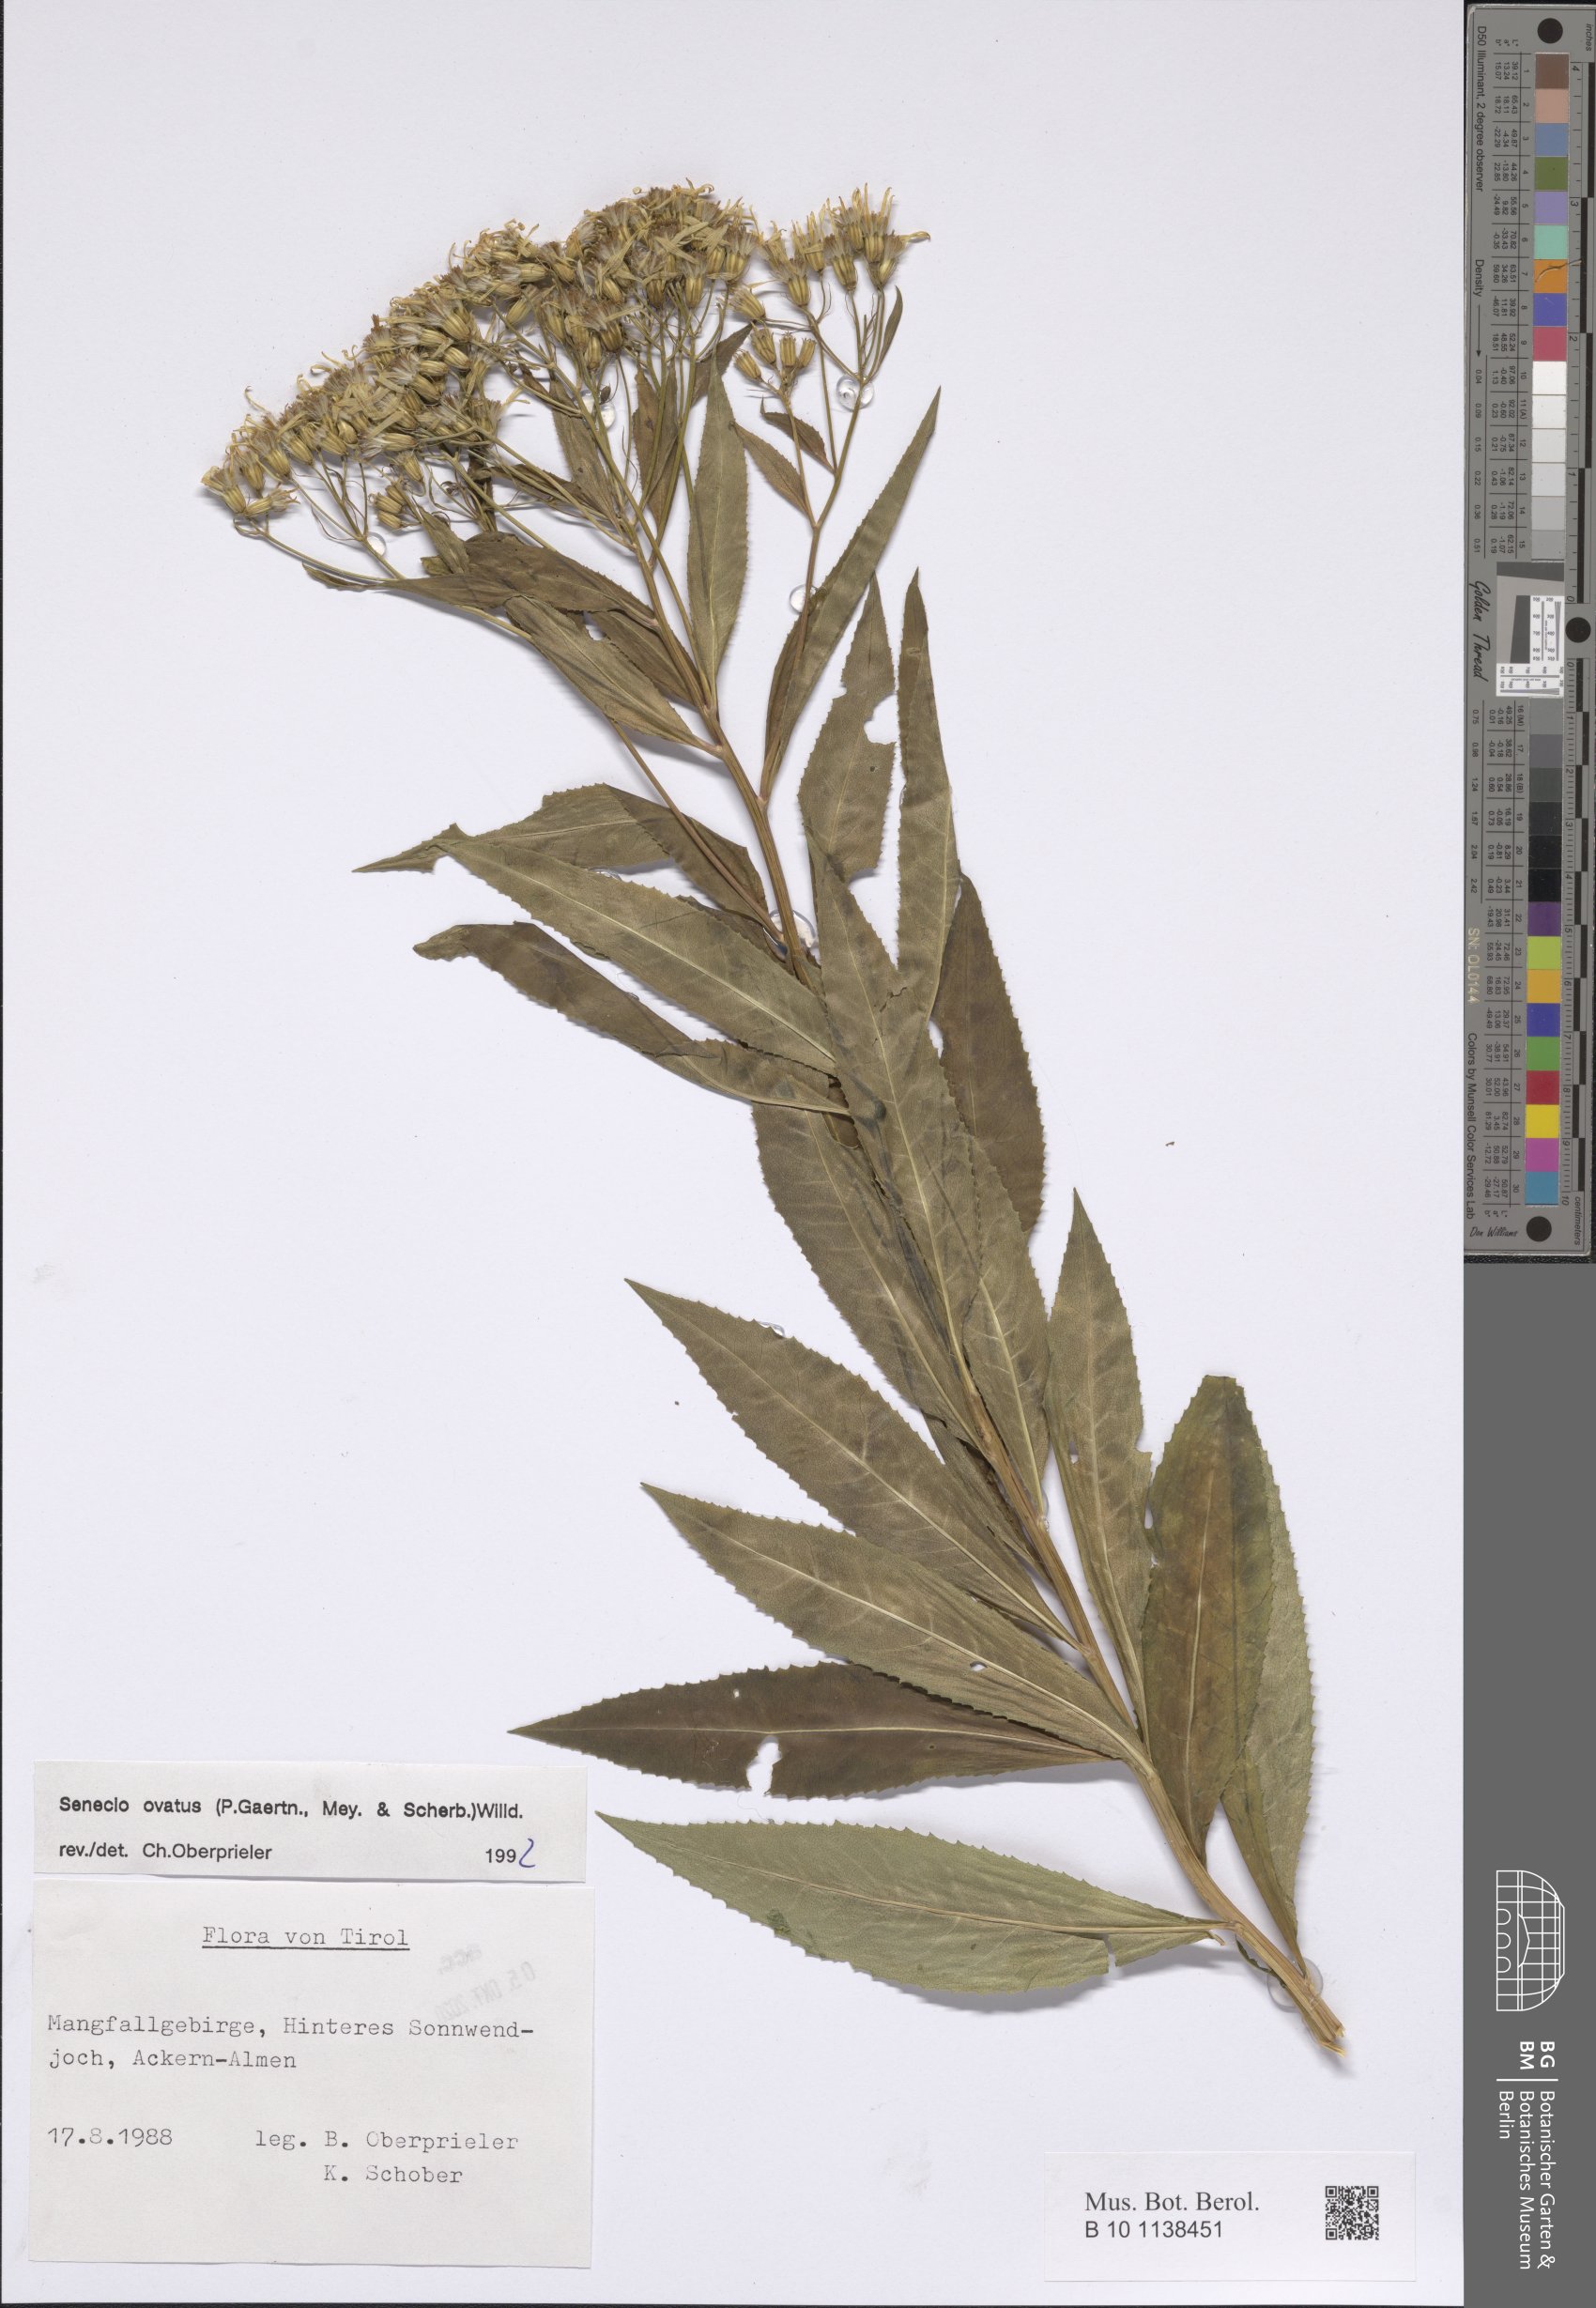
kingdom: Plantae
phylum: Tracheophyta
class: Magnoliopsida
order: Asterales
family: Asteraceae
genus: Senecio
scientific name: Senecio ovatus
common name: Wood ragwort
